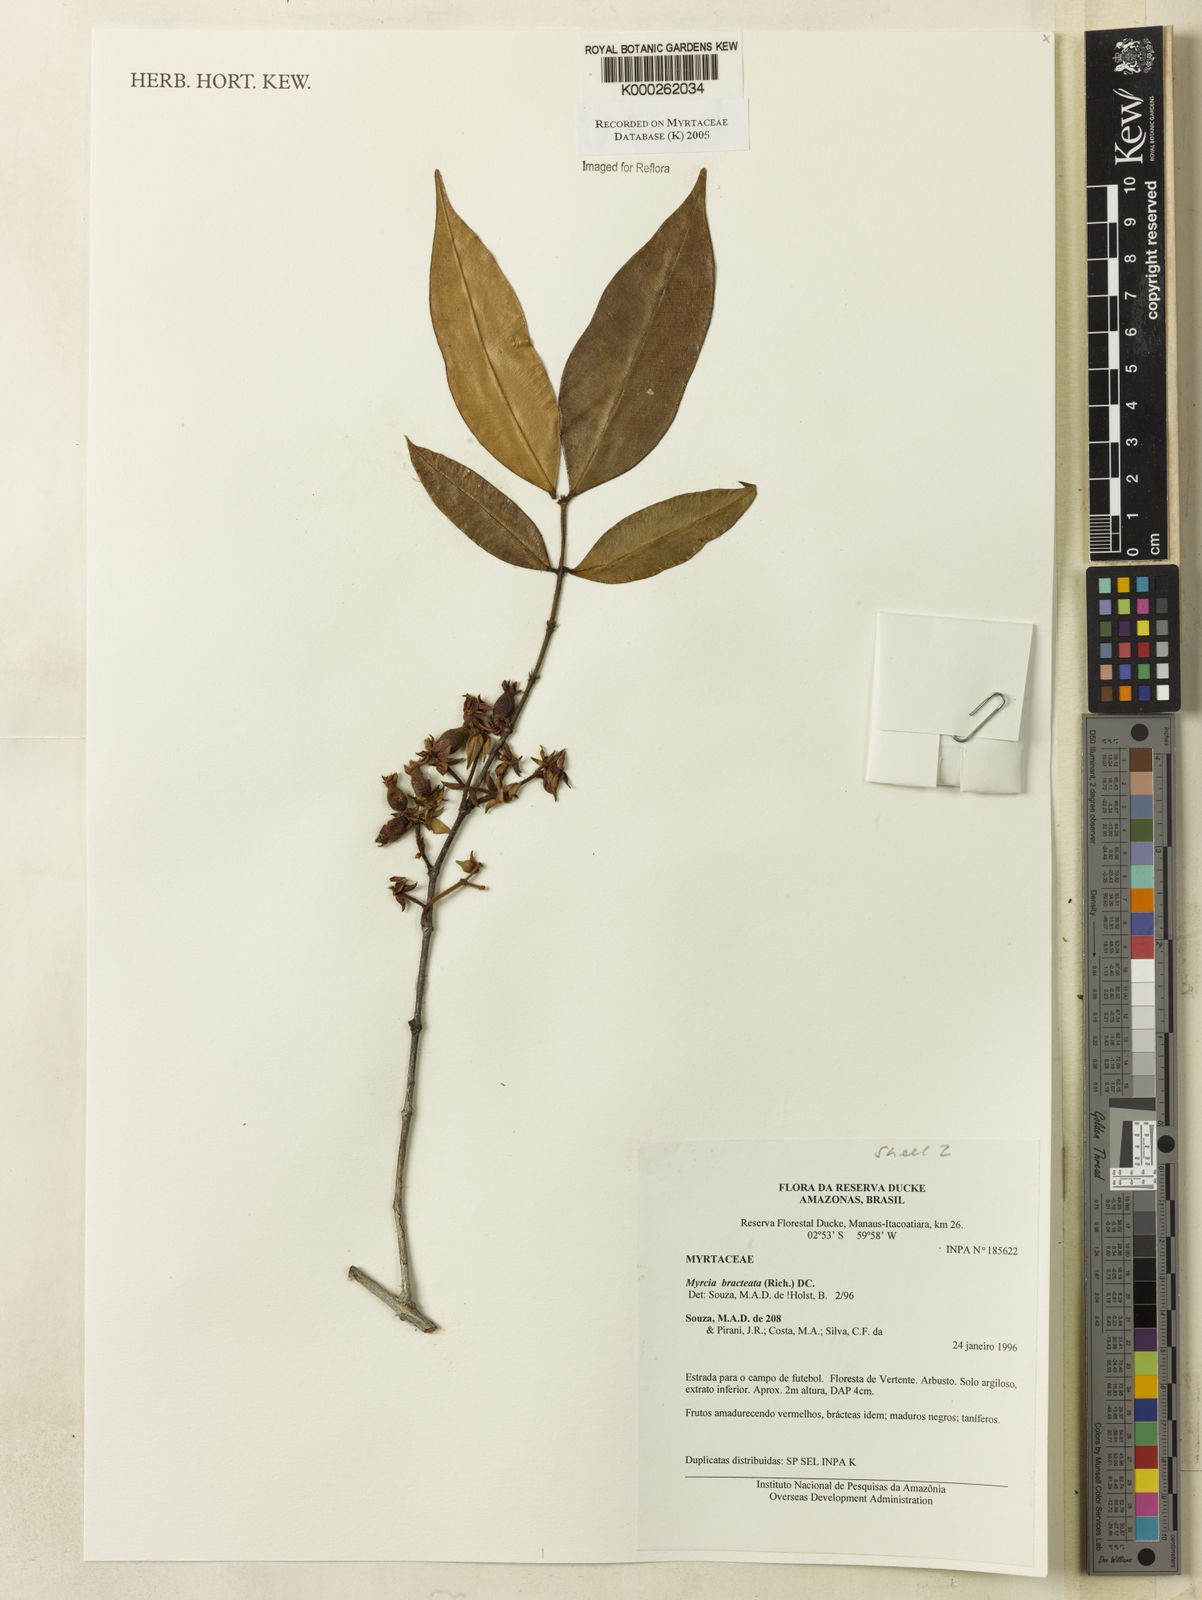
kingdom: Plantae
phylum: Tracheophyta
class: Magnoliopsida
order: Myrtales
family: Myrtaceae
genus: Myrcia
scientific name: Myrcia bracteata
